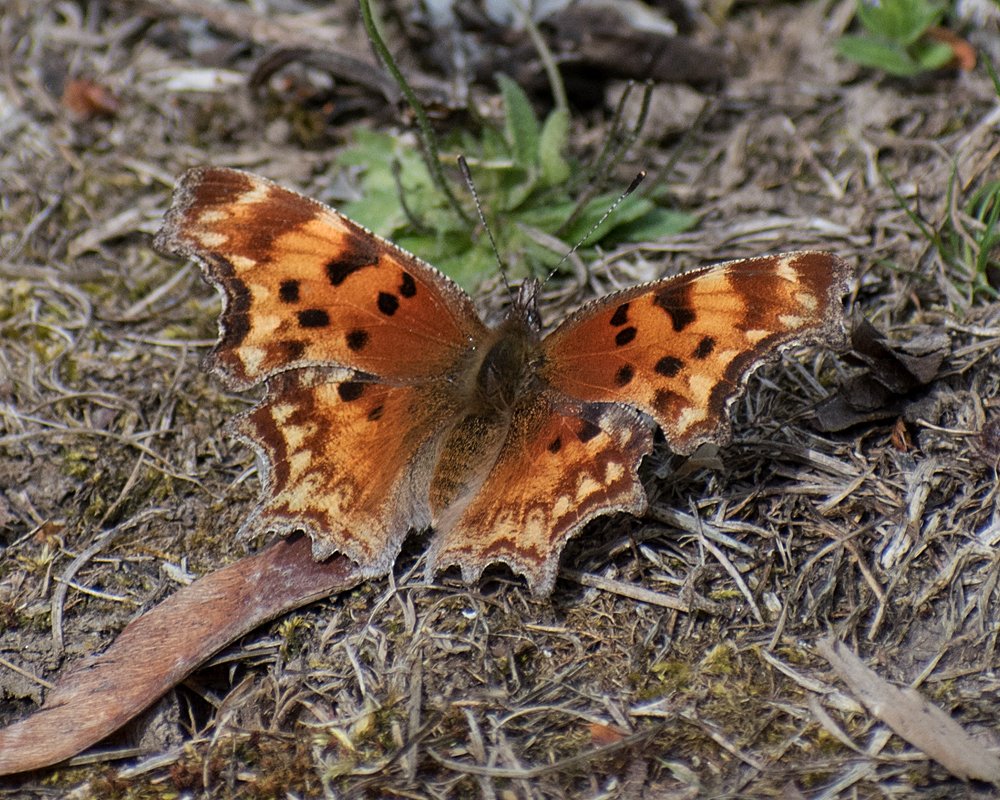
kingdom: Animalia
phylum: Arthropoda
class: Insecta
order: Lepidoptera
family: Nymphalidae
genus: Polygonia
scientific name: Polygonia gracilis
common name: Hoary Comma
